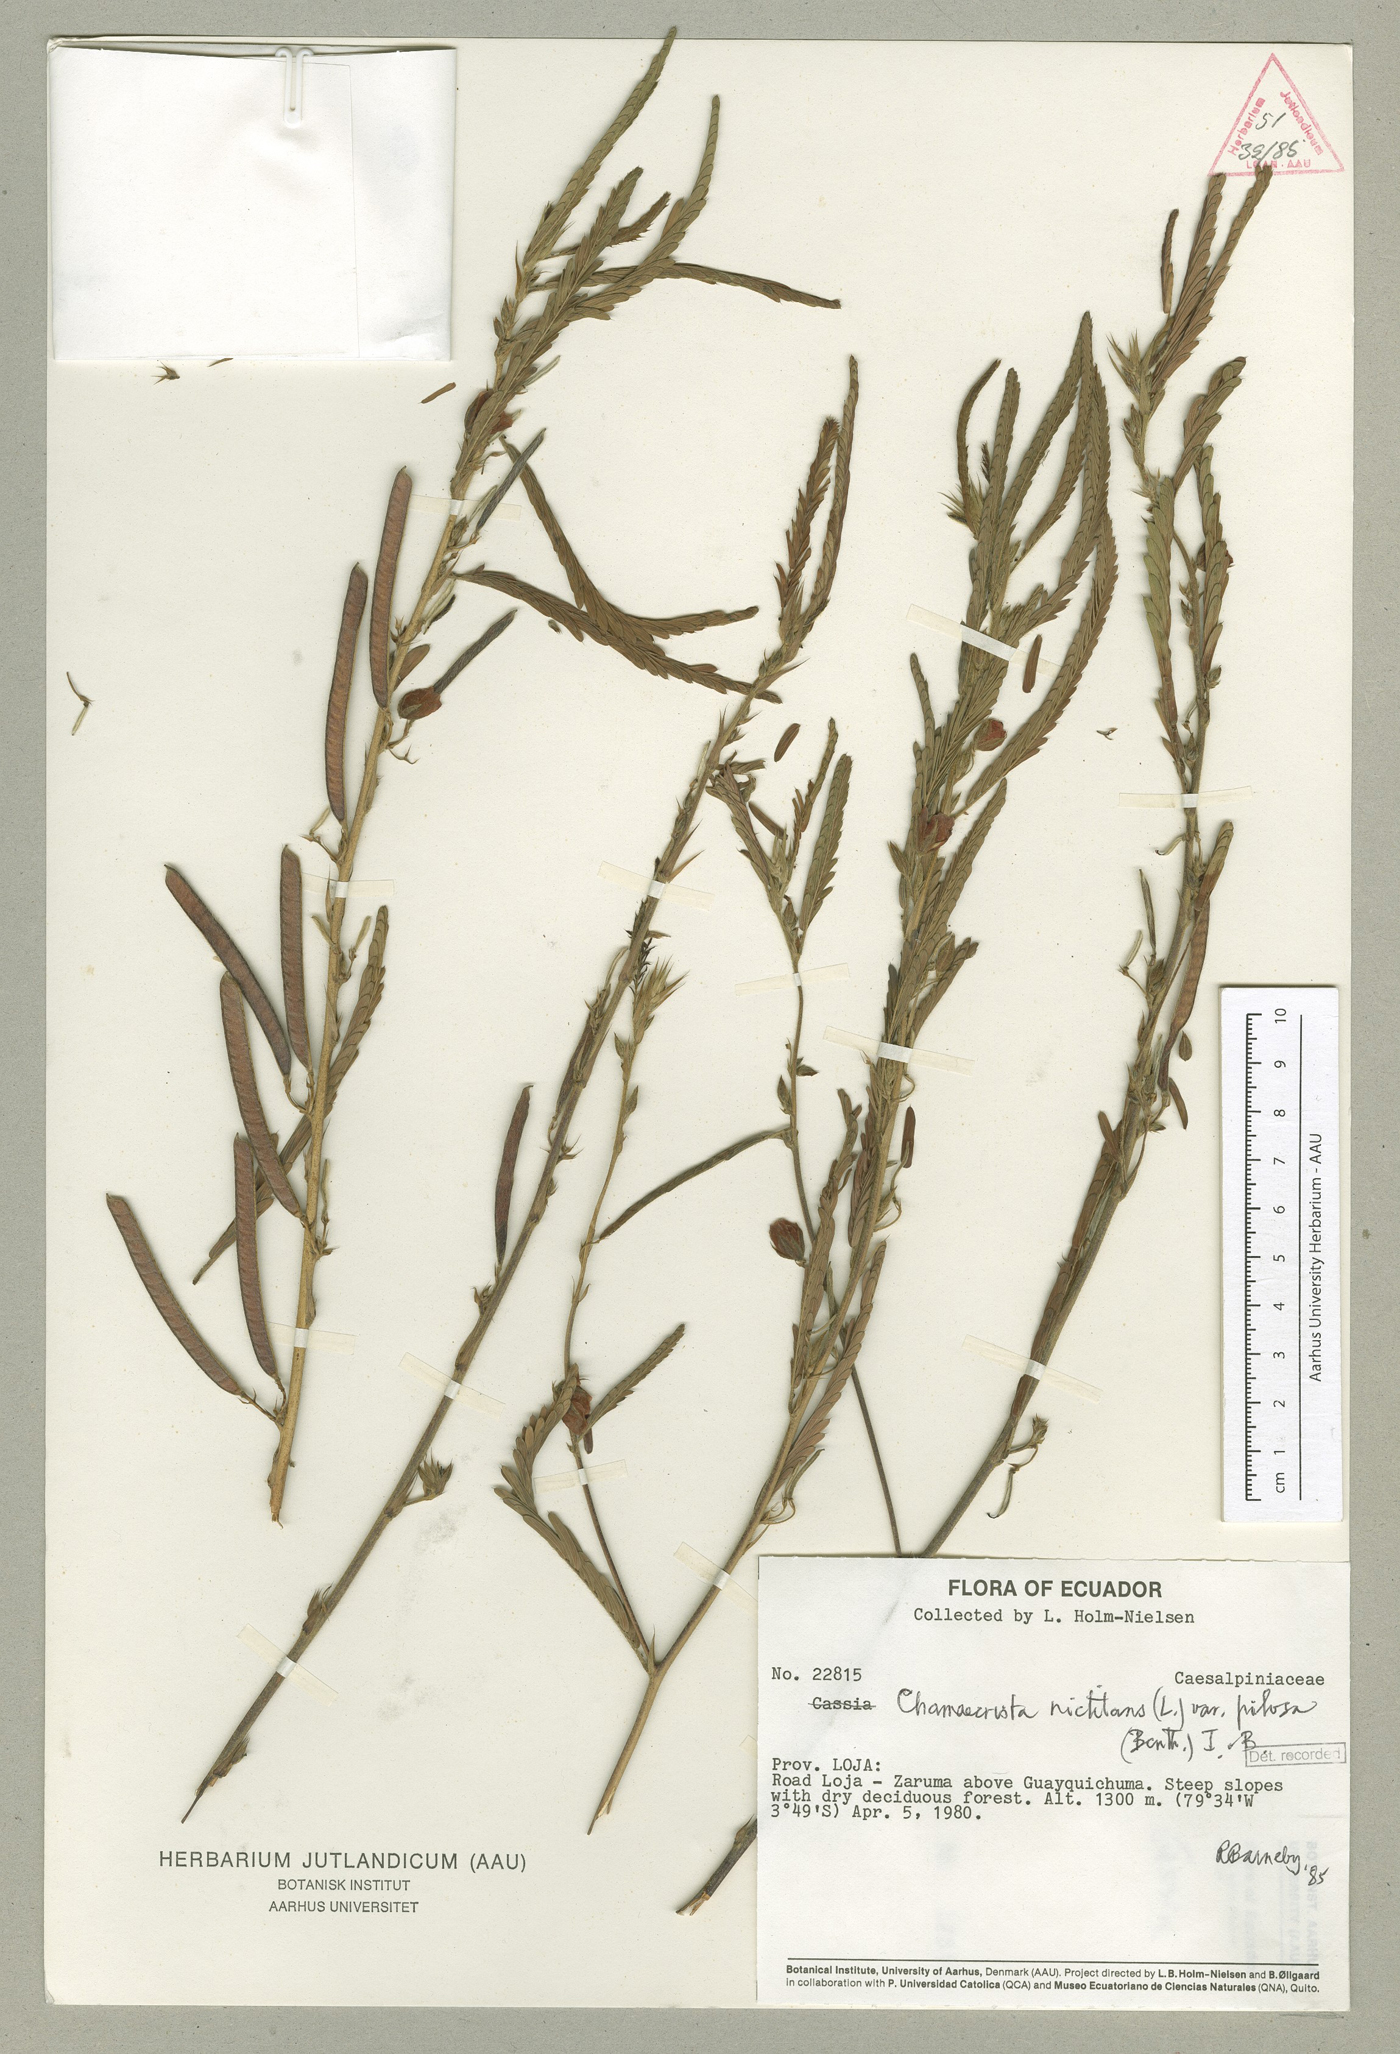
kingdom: Plantae
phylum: Tracheophyta
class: Magnoliopsida
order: Fabales
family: Fabaceae
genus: Chamaecrista
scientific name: Chamaecrista nictitans
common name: Sensitive cassia
